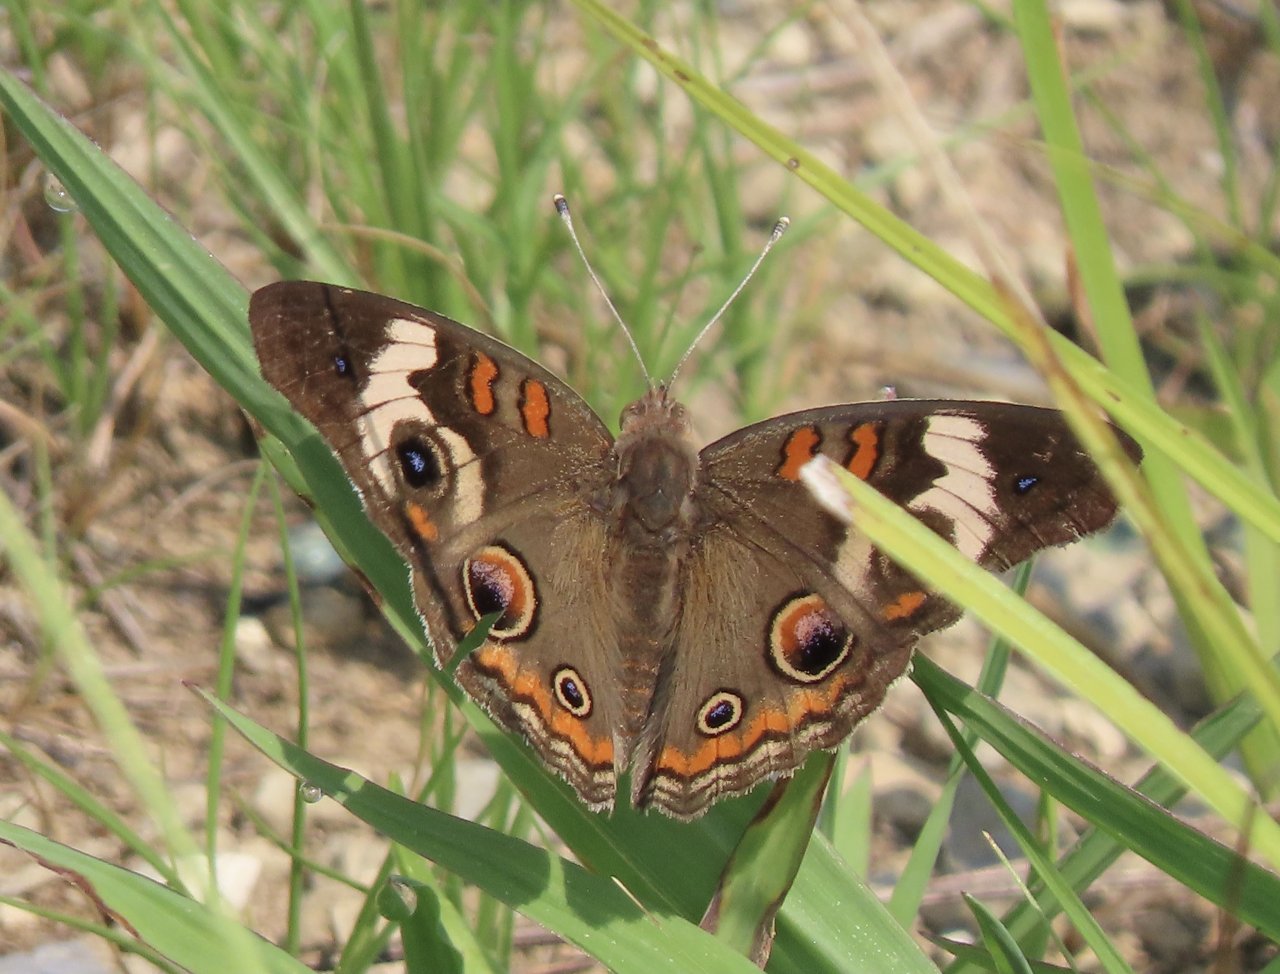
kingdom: Animalia
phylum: Arthropoda
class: Insecta
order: Lepidoptera
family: Nymphalidae
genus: Junonia
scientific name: Junonia coenia
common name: Common Buckeye
